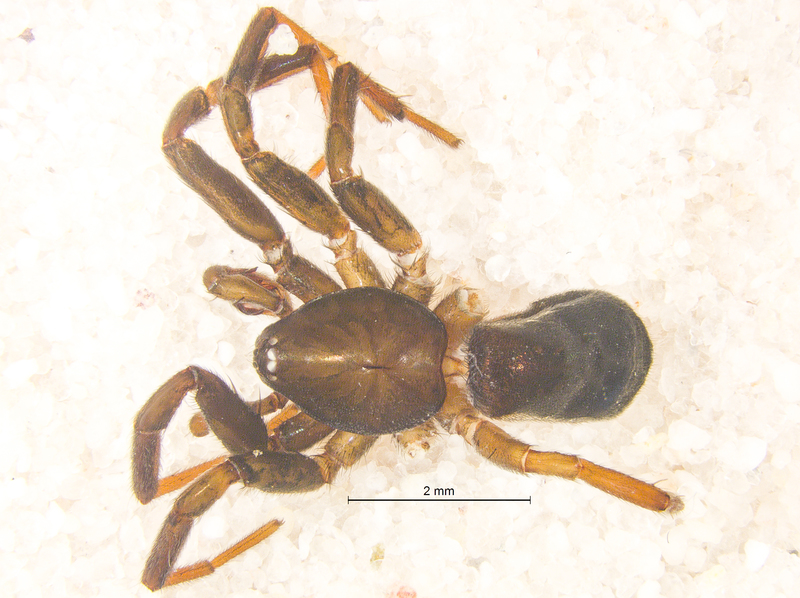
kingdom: Animalia
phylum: Arthropoda
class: Arachnida
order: Araneae
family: Gnaphosidae
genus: Drassyllus
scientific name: Drassyllus lutetianus
